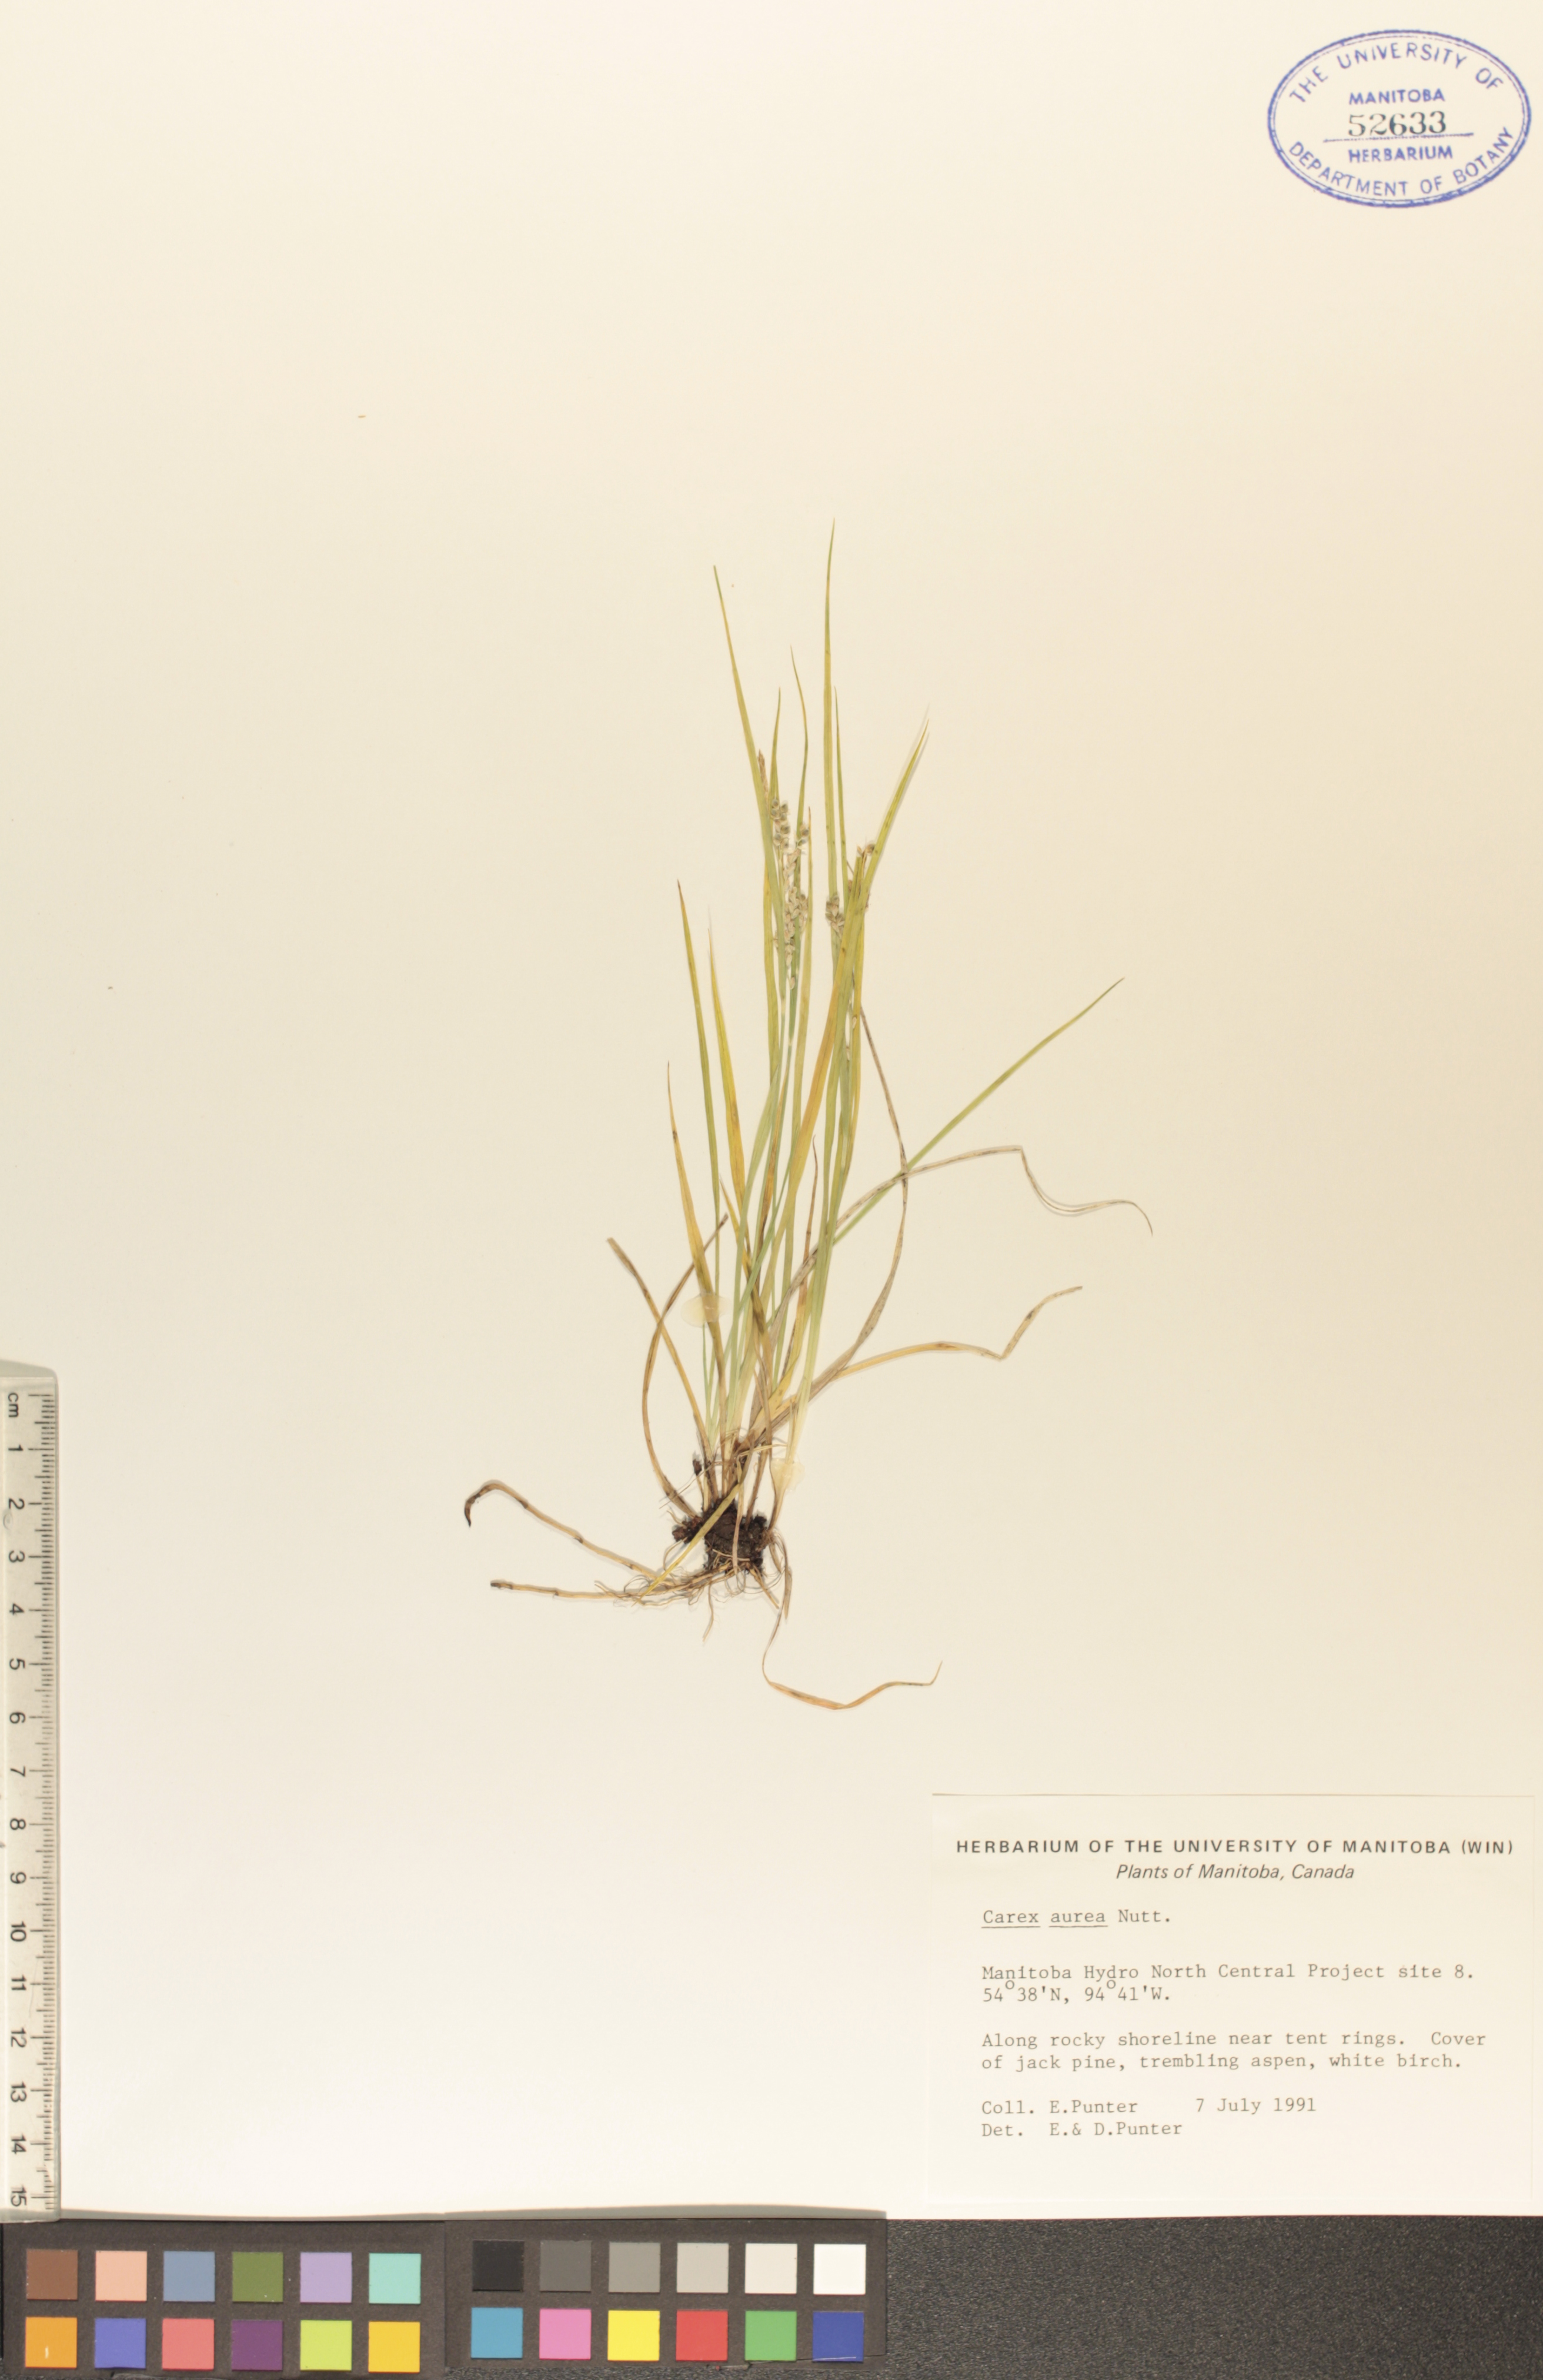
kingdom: Plantae
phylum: Tracheophyta
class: Liliopsida
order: Poales
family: Cyperaceae
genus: Carex
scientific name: Carex aurea
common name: Golden sedge
